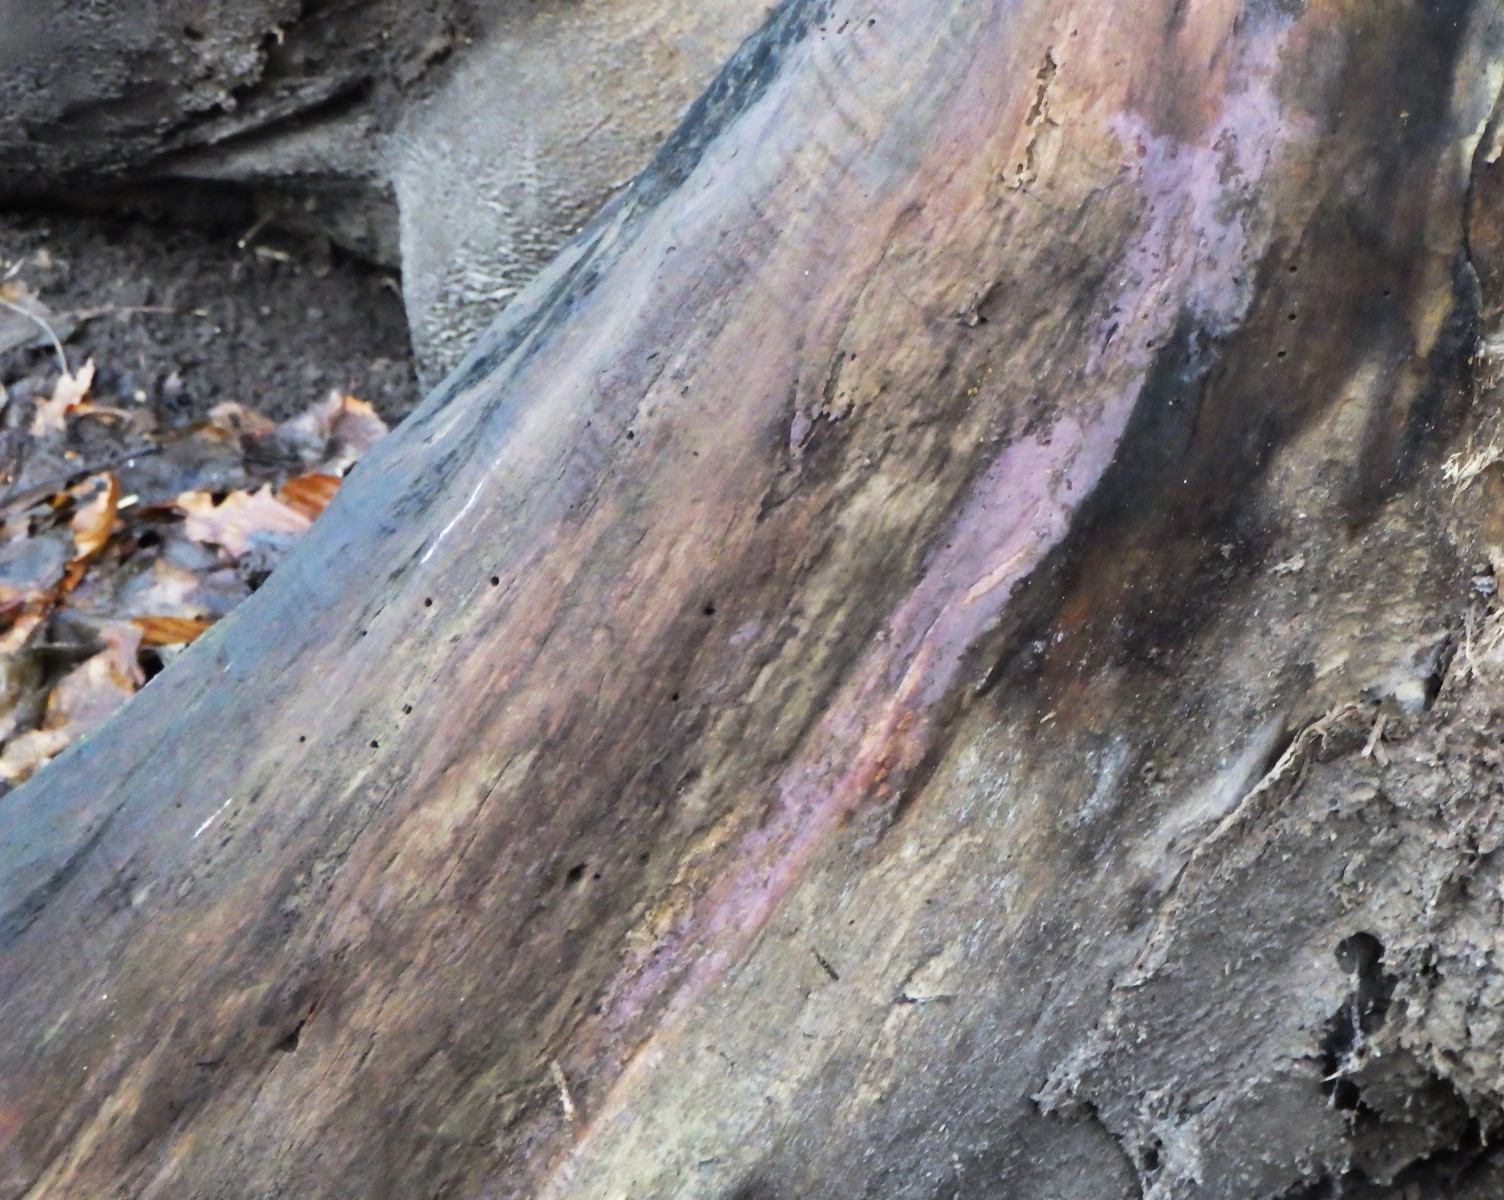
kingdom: Fungi
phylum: Basidiomycota
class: Agaricomycetes
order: Cantharellales
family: Tulasnellaceae
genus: Tulasnella
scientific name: Tulasnella violea
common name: violet ballonhinde
